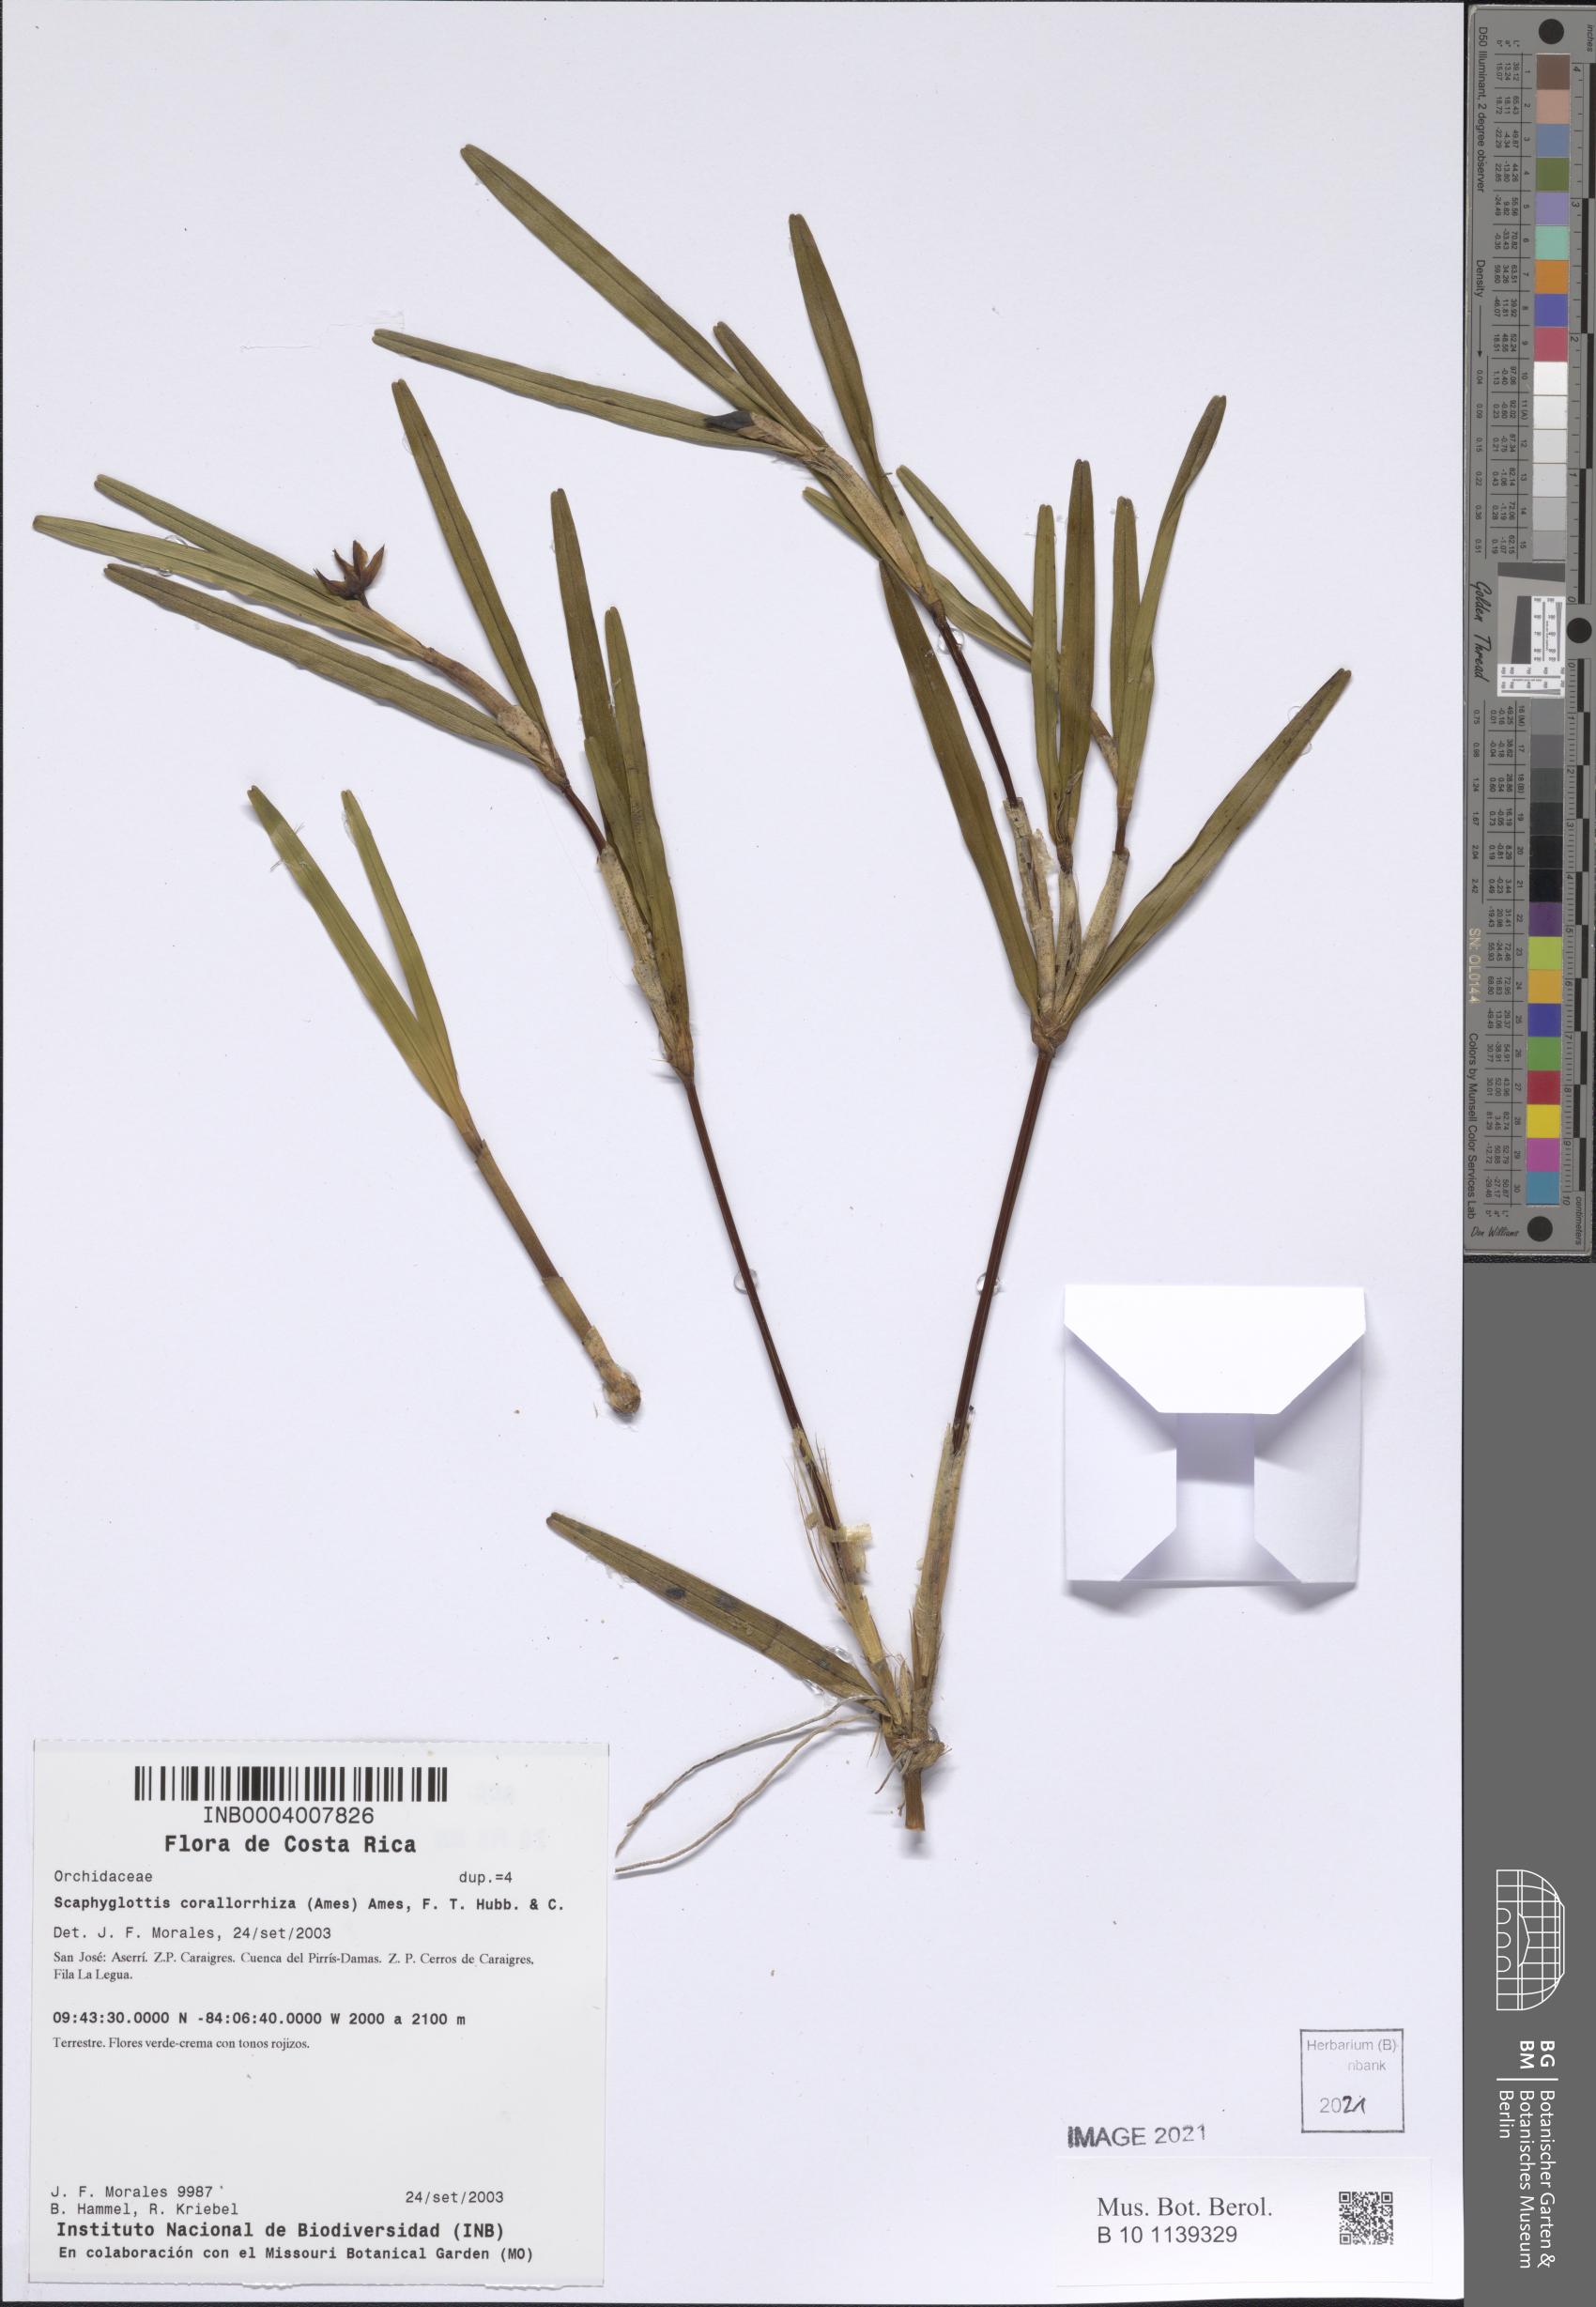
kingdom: Plantae
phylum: Tracheophyta
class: Liliopsida
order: Asparagales
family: Orchidaceae
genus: Scaphyglottis
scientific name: Scaphyglottis corallorrhiza
